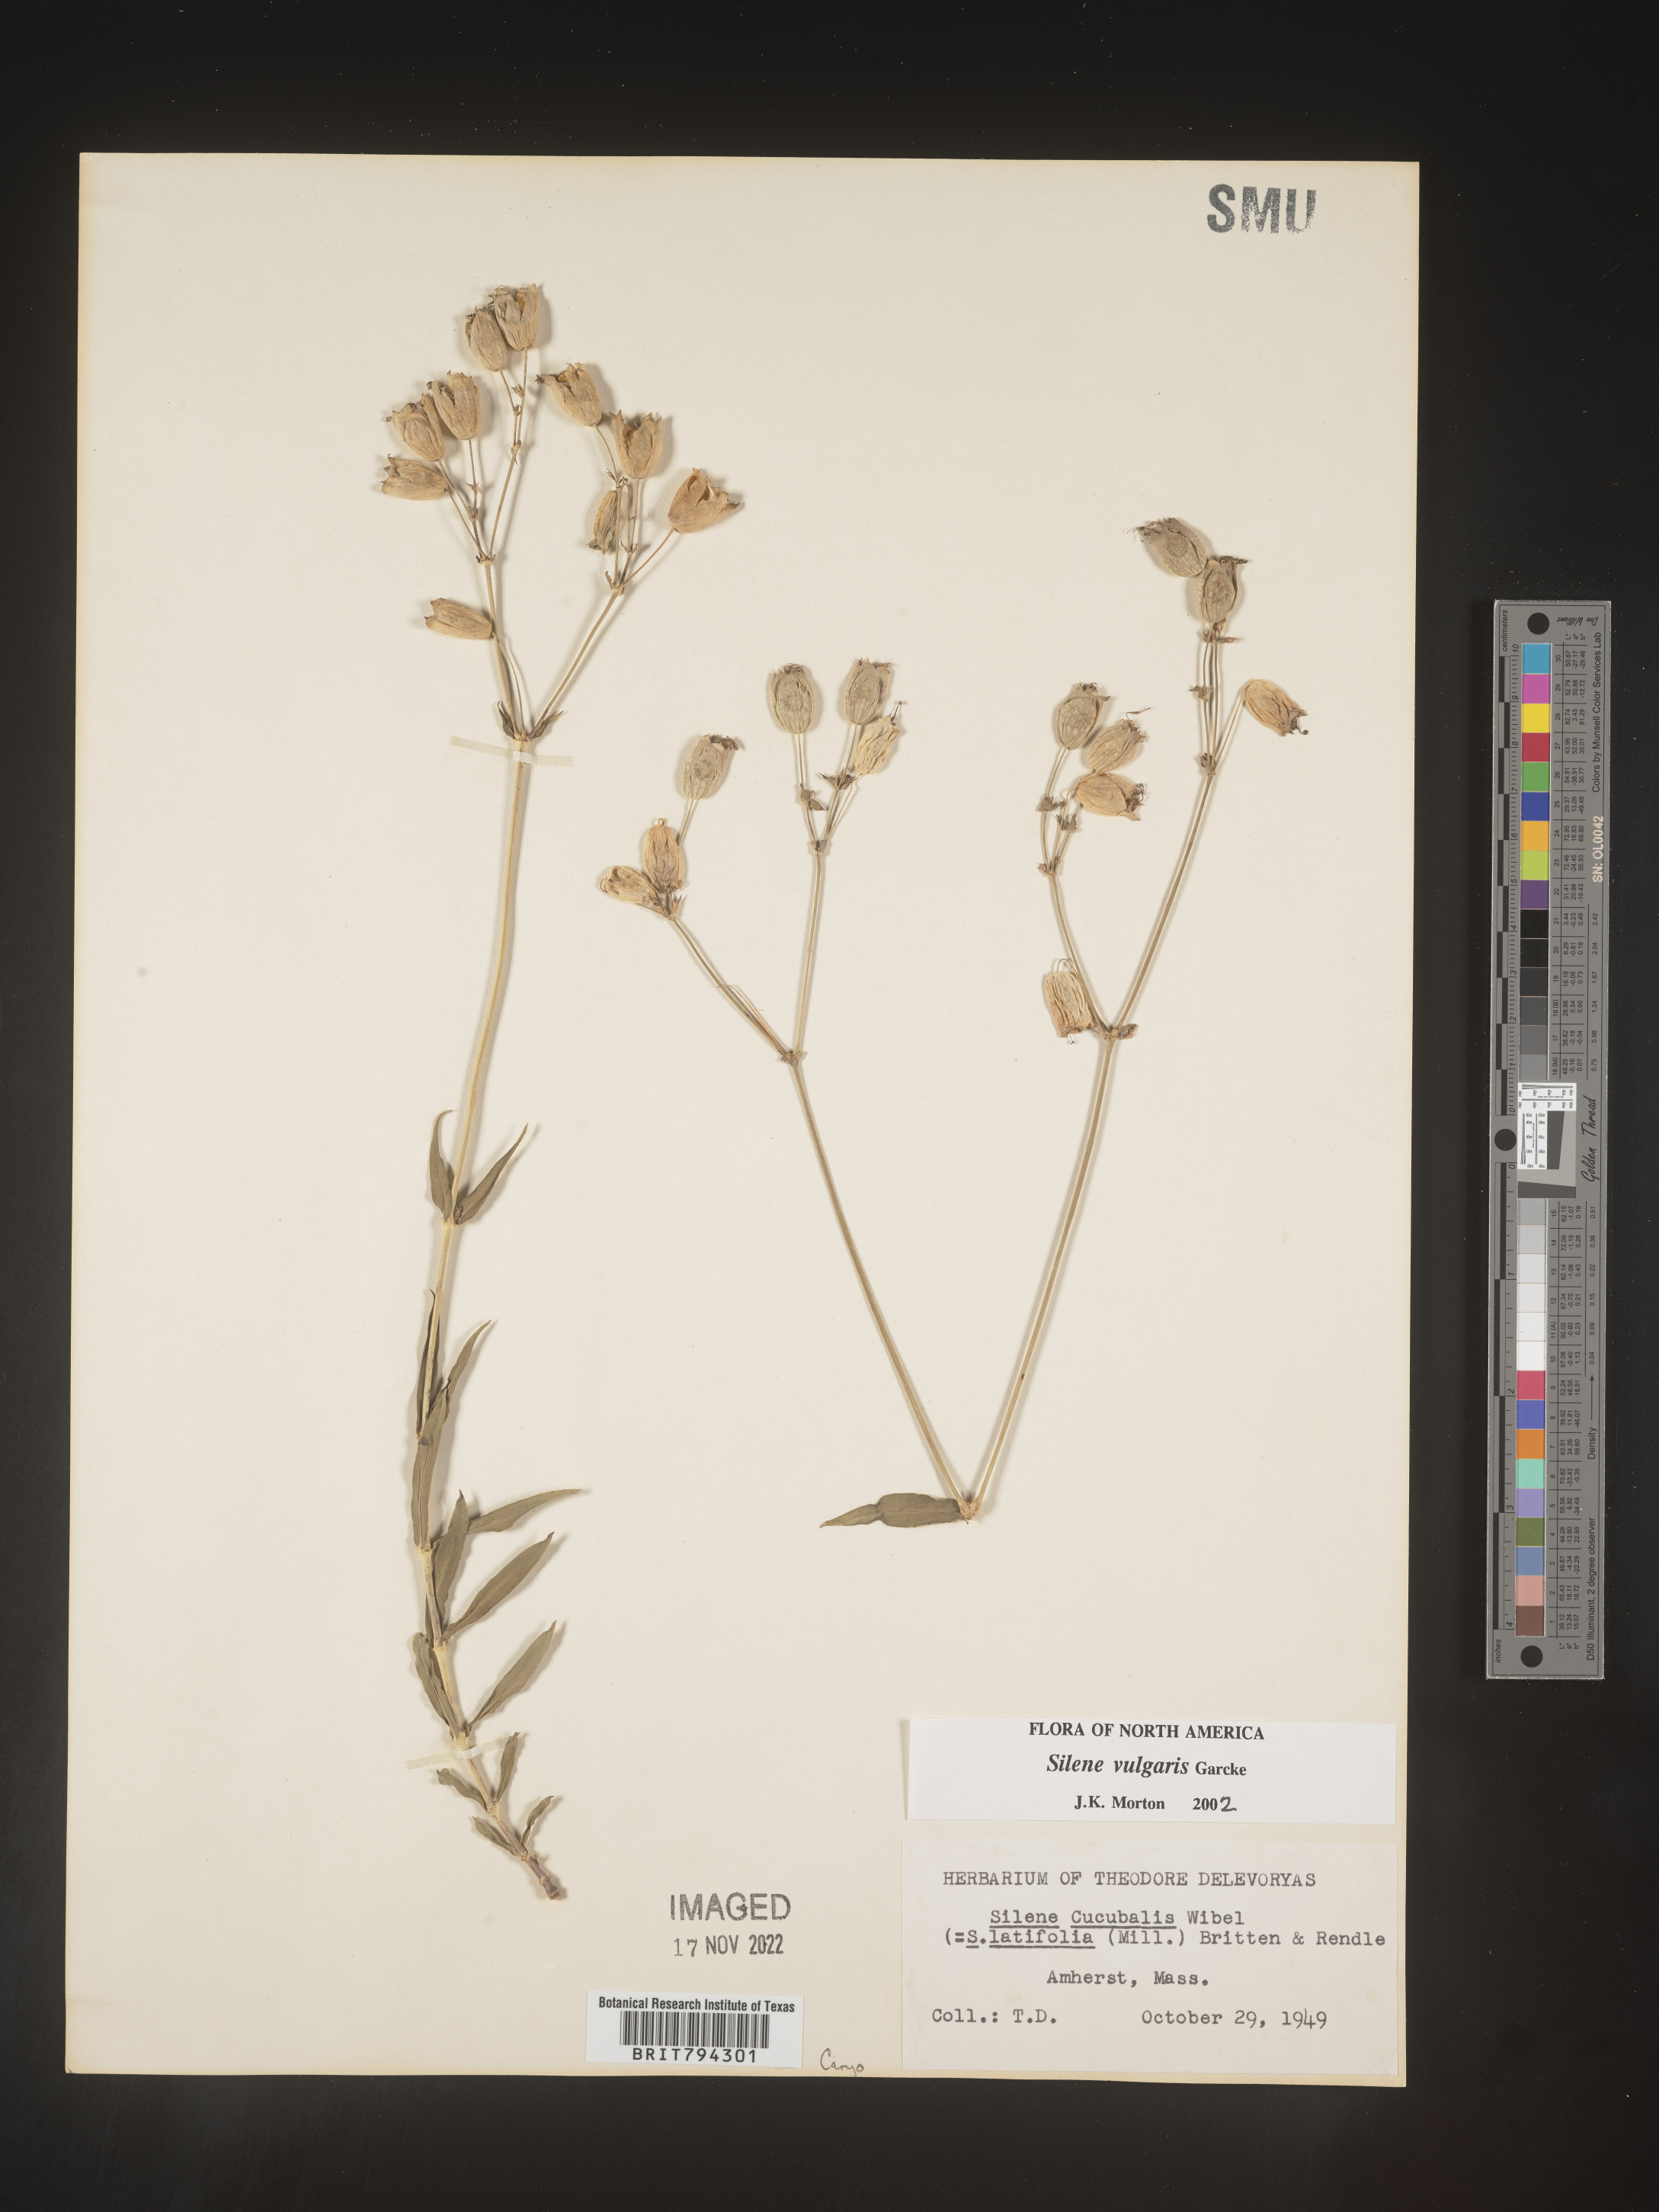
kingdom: Plantae
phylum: Tracheophyta
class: Magnoliopsida
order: Caryophyllales
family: Caryophyllaceae
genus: Silene
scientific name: Silene vulgaris
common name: Bladder campion
